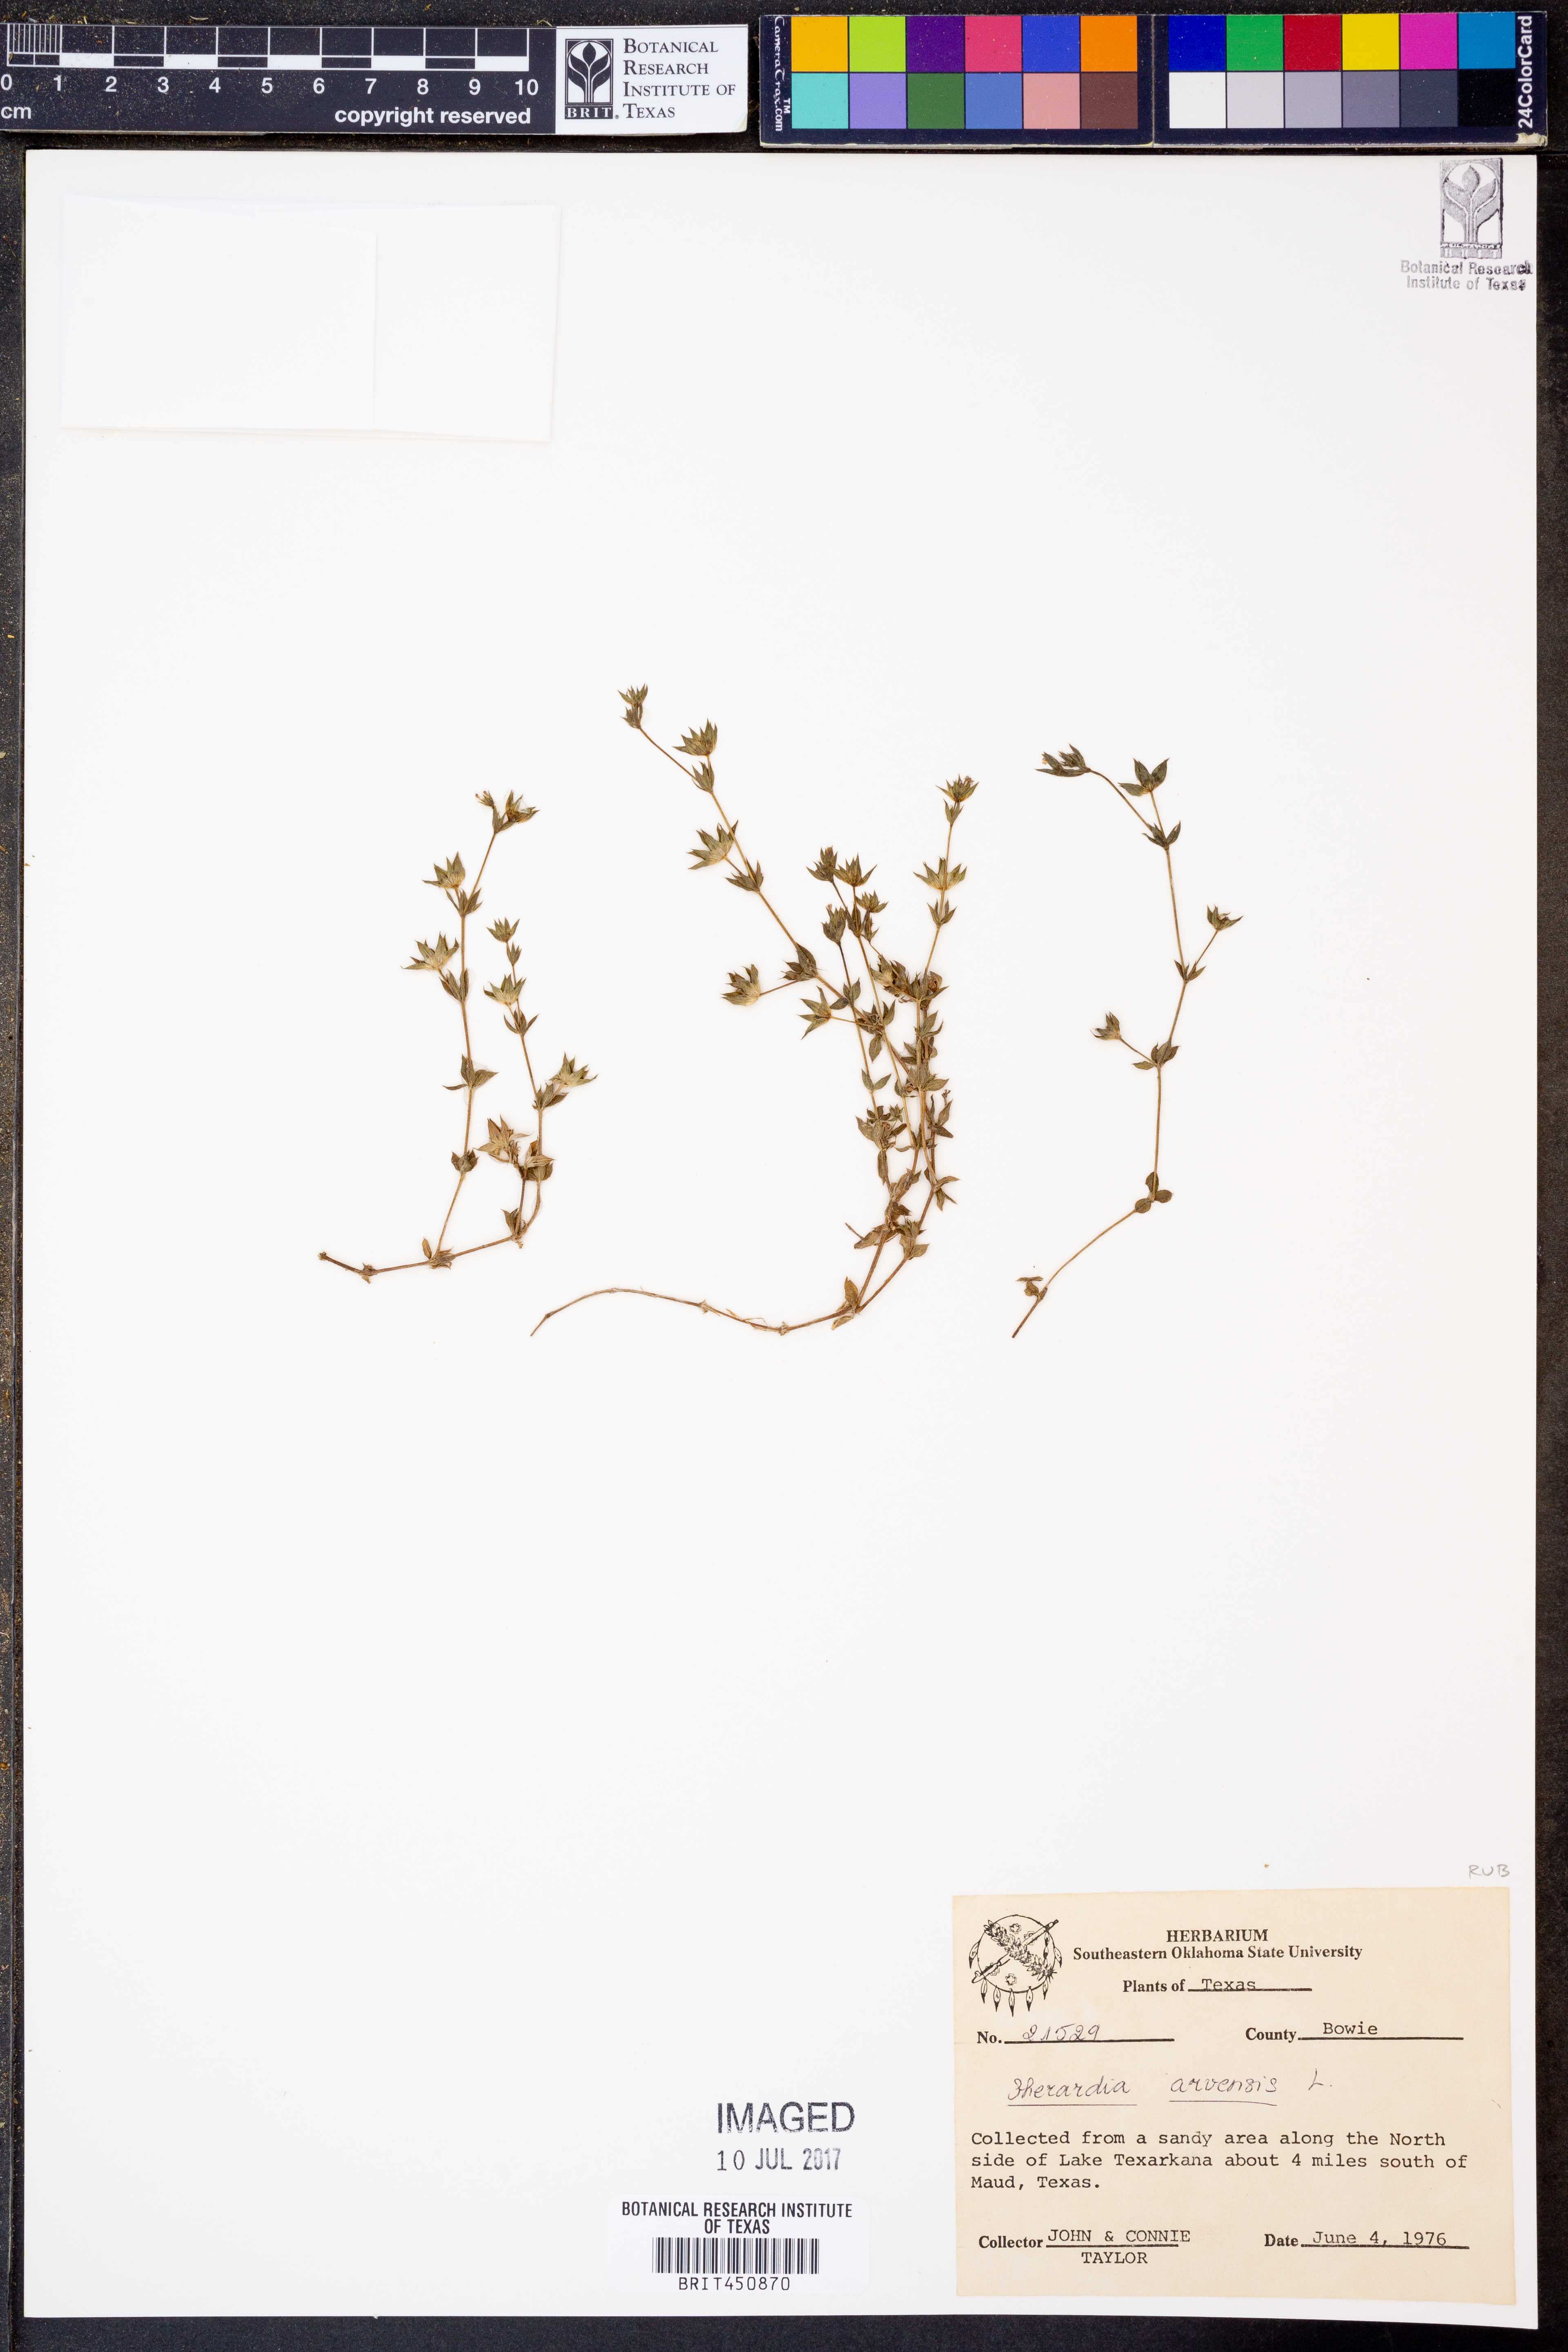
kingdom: Plantae
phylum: Tracheophyta
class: Magnoliopsida
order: Gentianales
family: Rubiaceae
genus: Sherardia
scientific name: Sherardia arvensis
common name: Field madder
